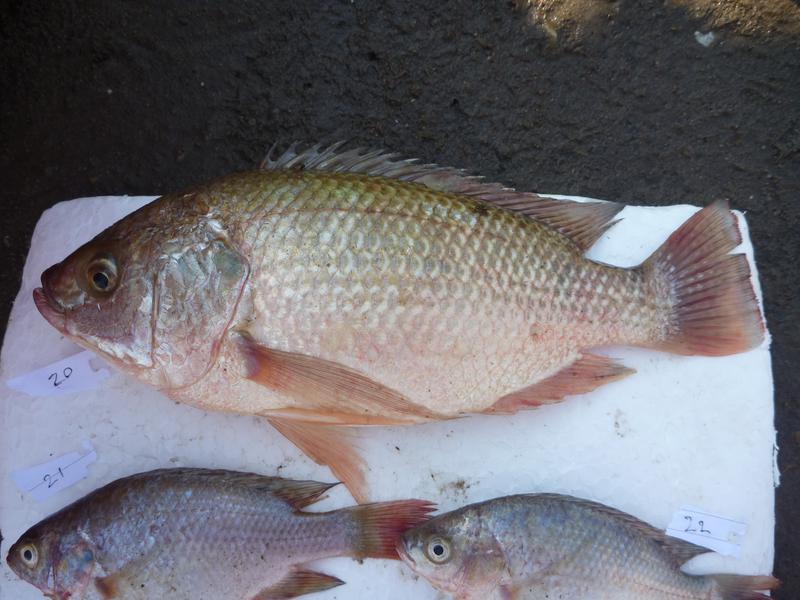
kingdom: Animalia
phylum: Chordata
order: Perciformes
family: Cichlidae
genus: Oreochromis
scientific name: Oreochromis esculentus
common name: Carp
